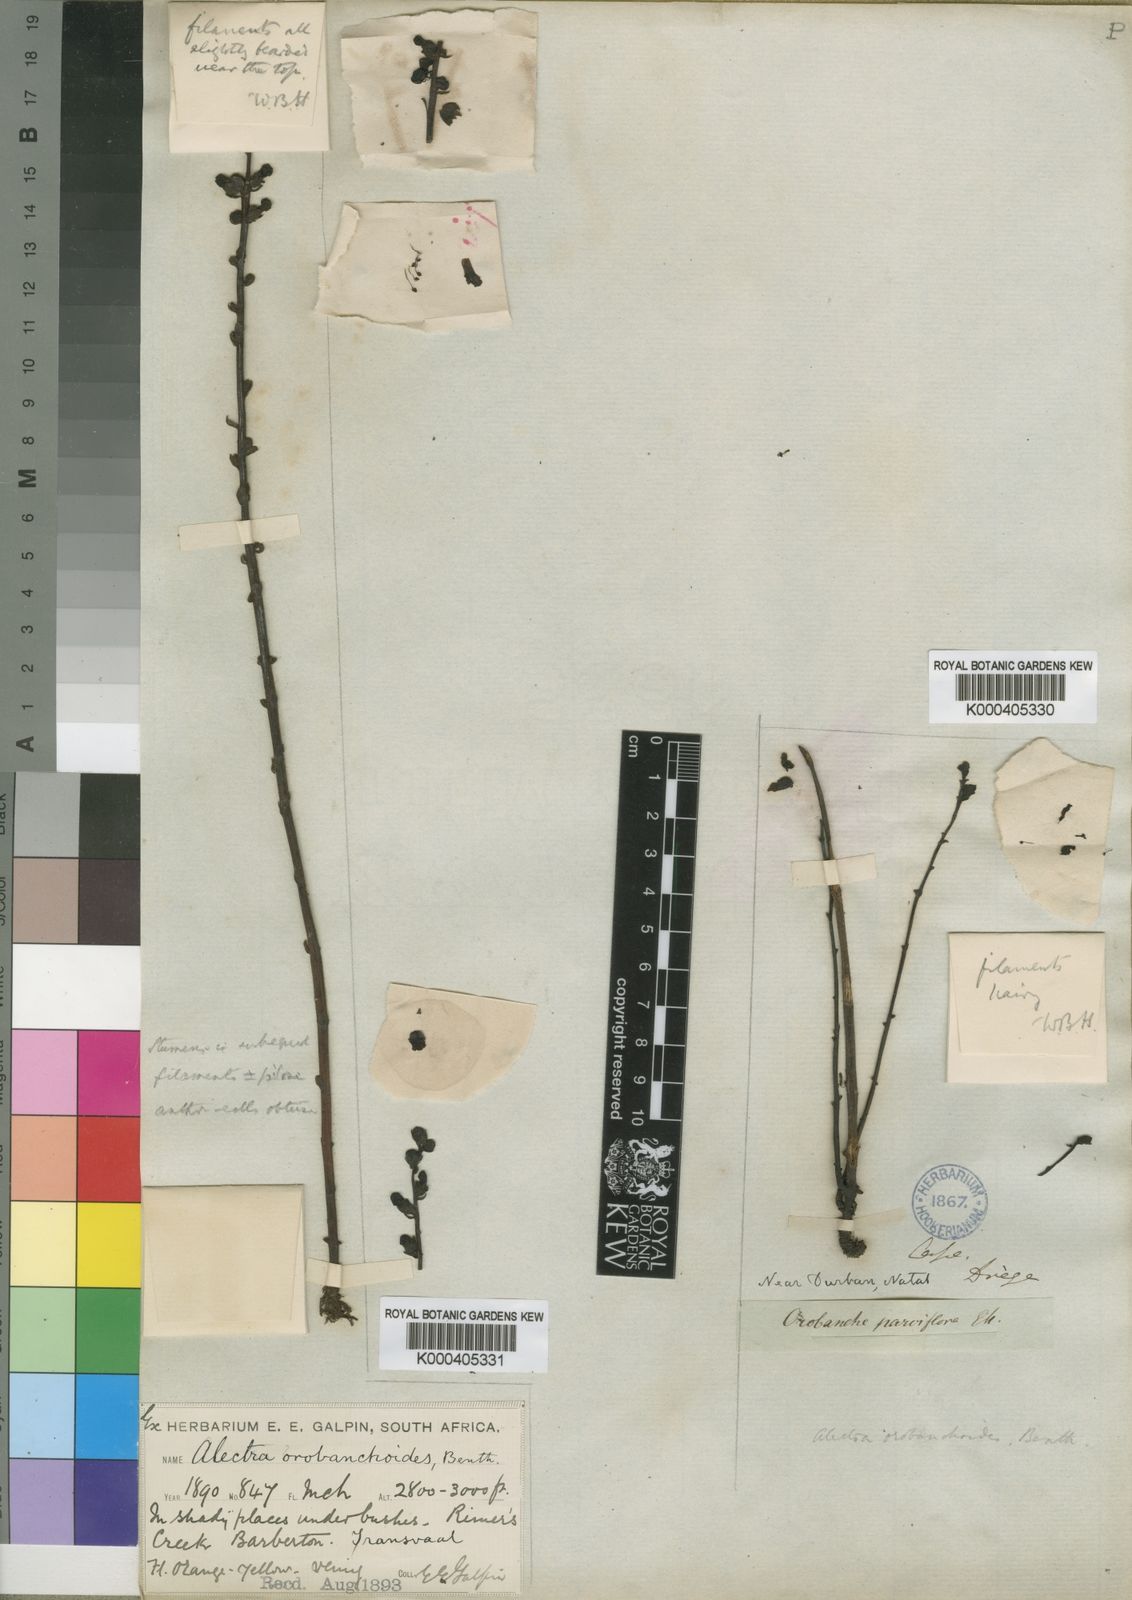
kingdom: Plantae
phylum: Tracheophyta
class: Magnoliopsida
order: Lamiales
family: Orobanchaceae
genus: Alectra
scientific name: Alectra orobanchoides
